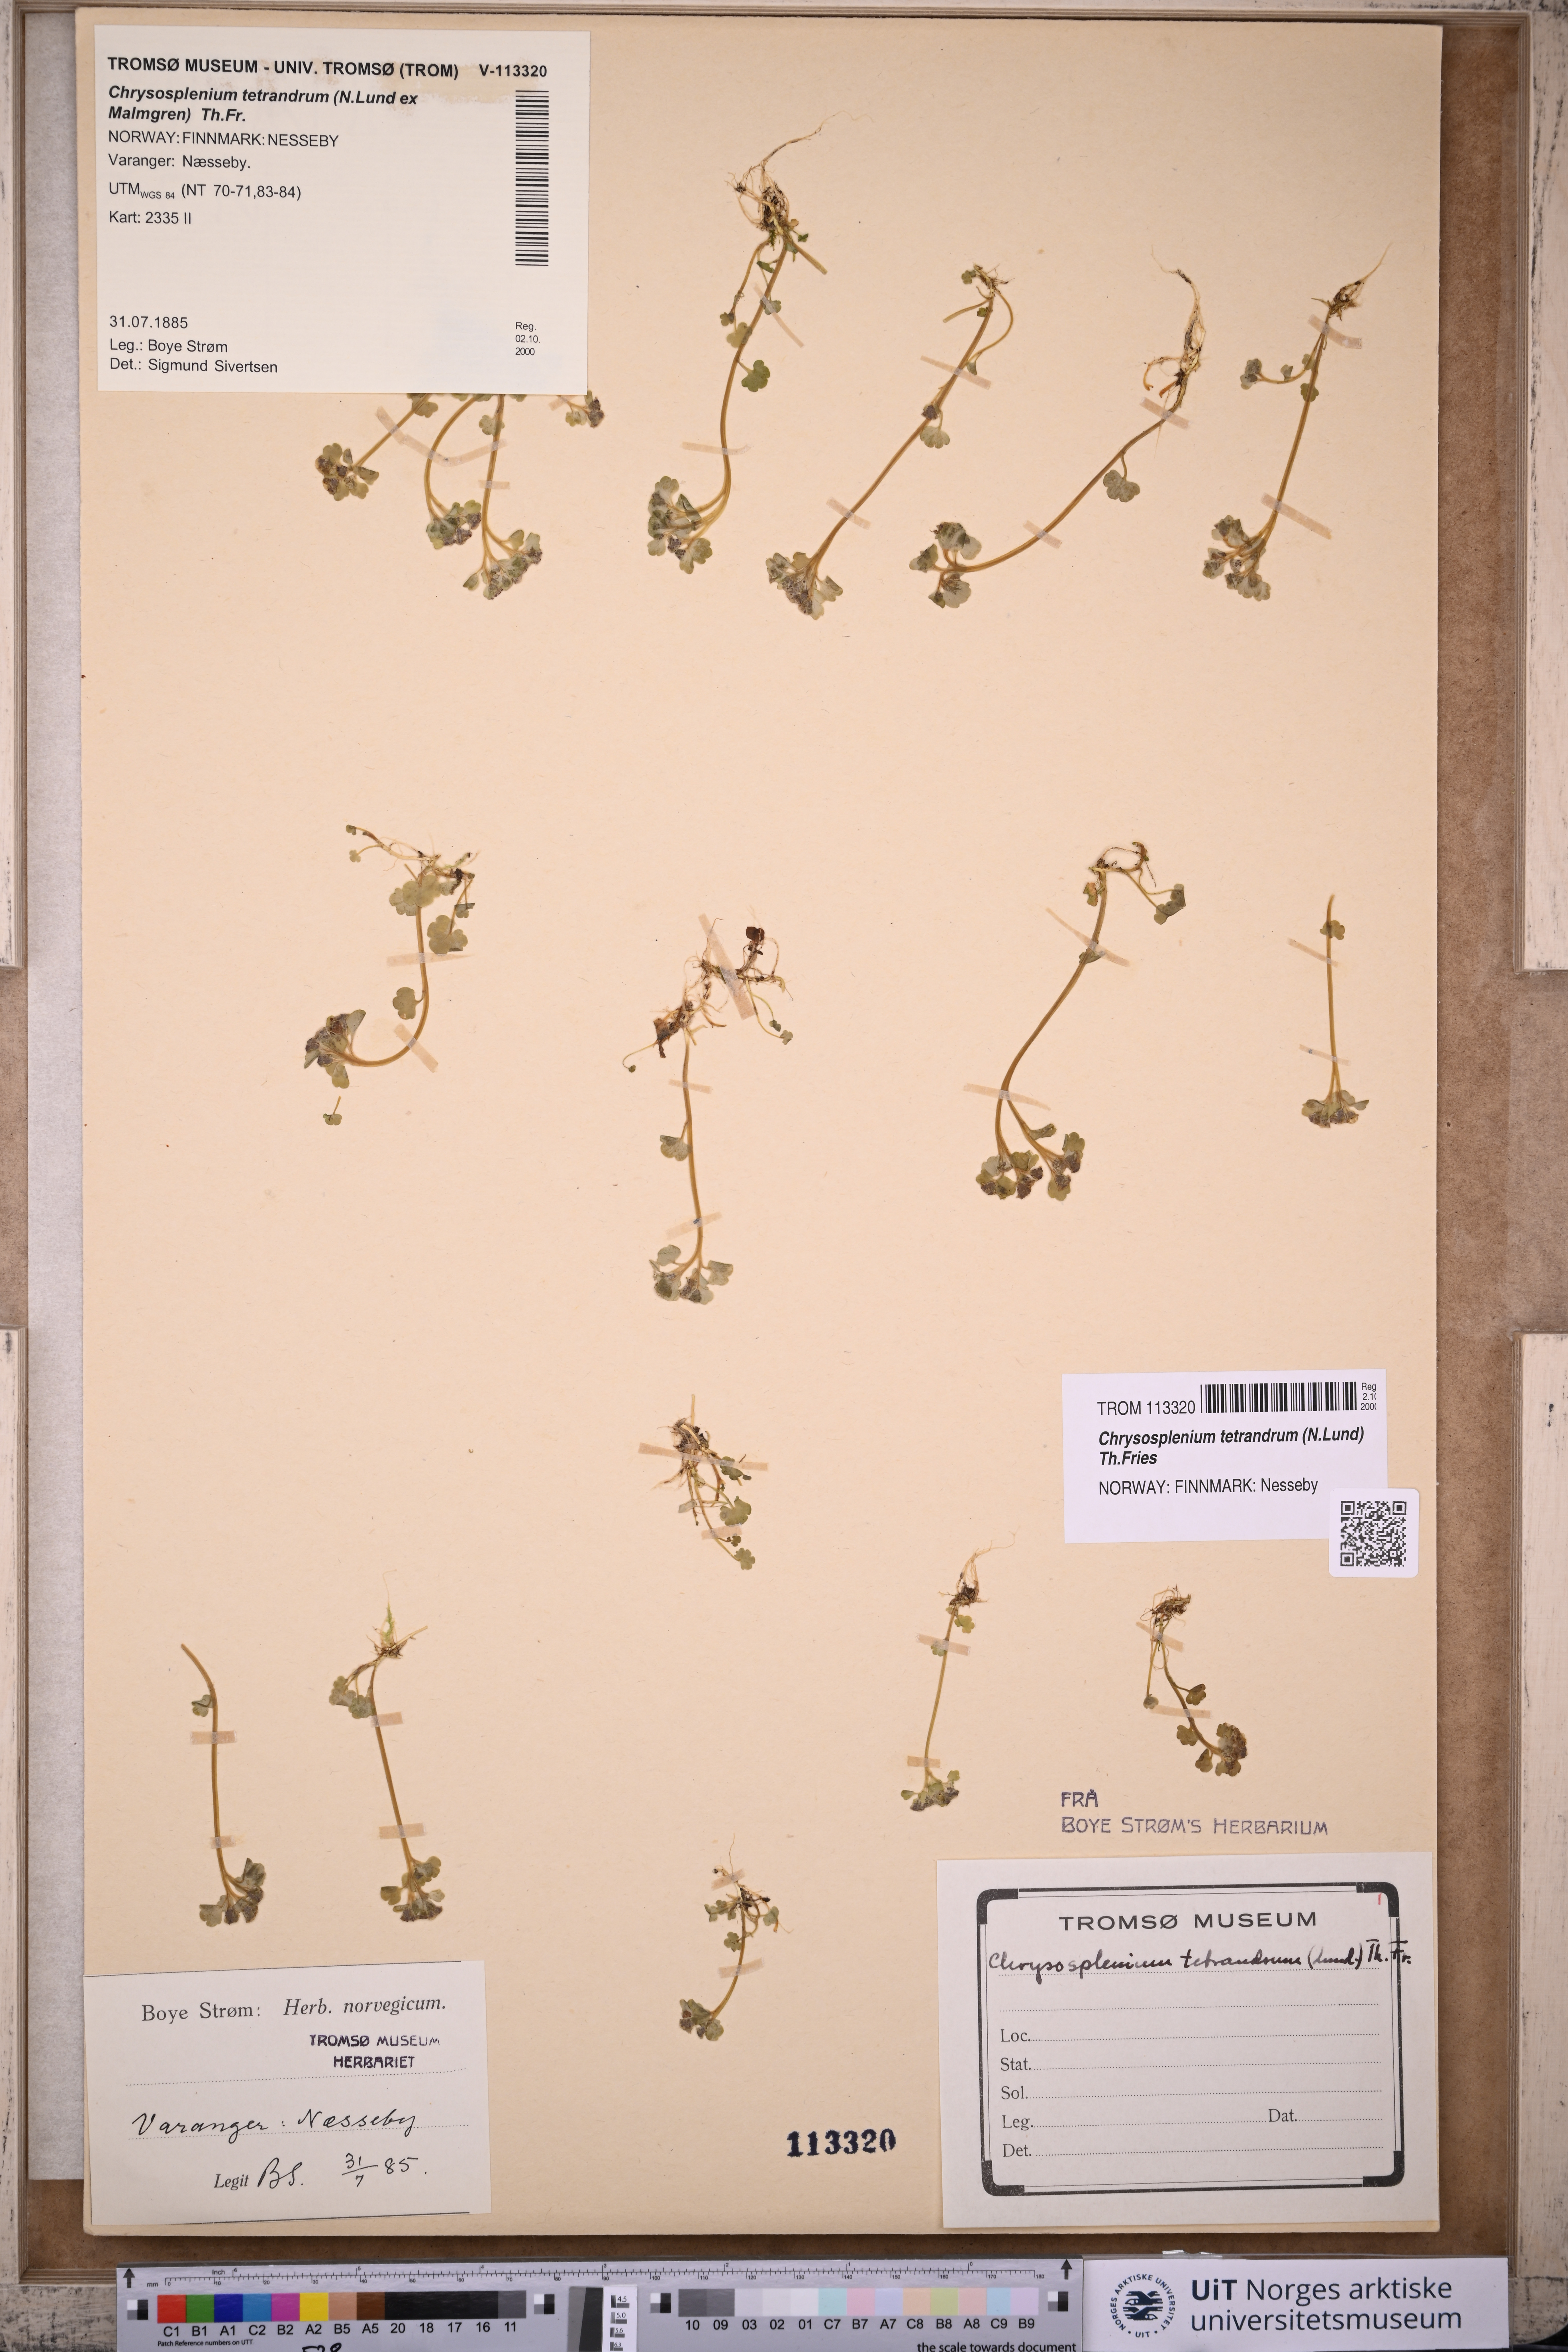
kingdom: Plantae
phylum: Tracheophyta
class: Magnoliopsida
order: Saxifragales
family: Saxifragaceae
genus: Chrysosplenium
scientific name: Chrysosplenium tetrandrum
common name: Green saxifrage
